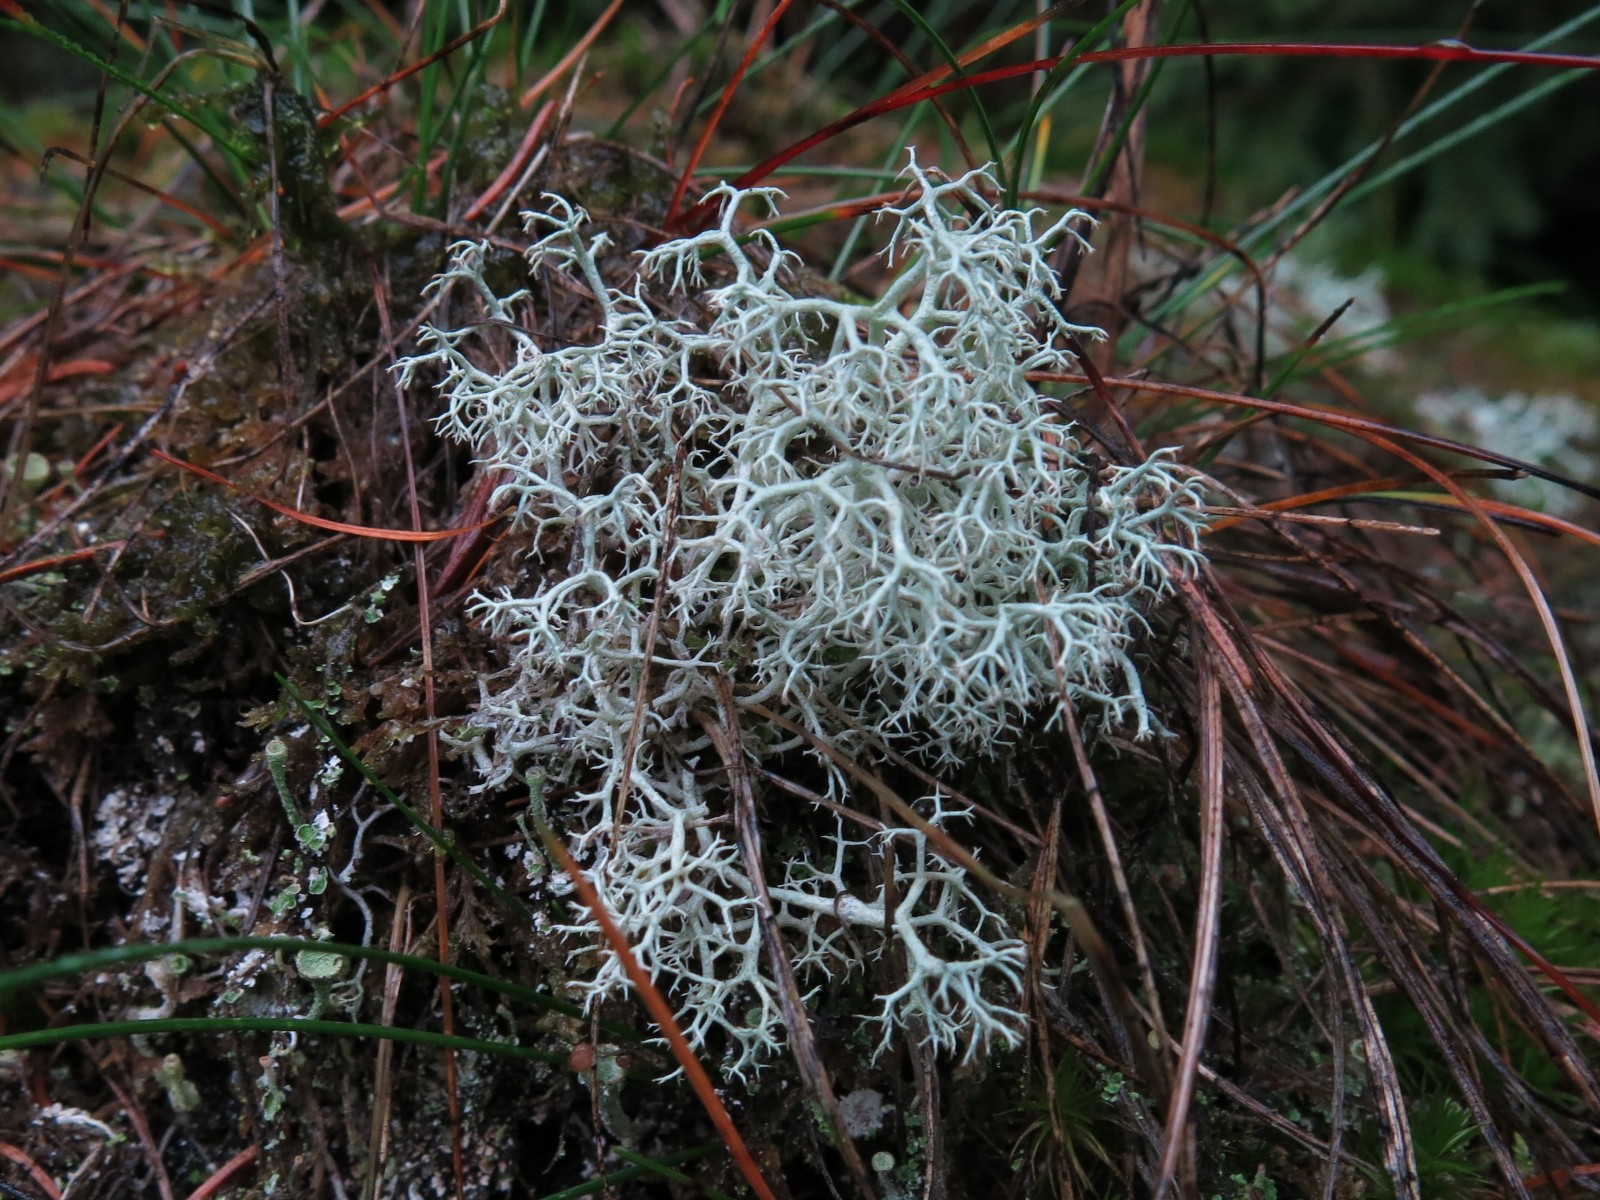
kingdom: Fungi
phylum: Ascomycota
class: Lecanoromycetes
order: Lecanorales
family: Cladoniaceae
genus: Cladonia
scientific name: Cladonia portentosa
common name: hede-rensdyrlav
